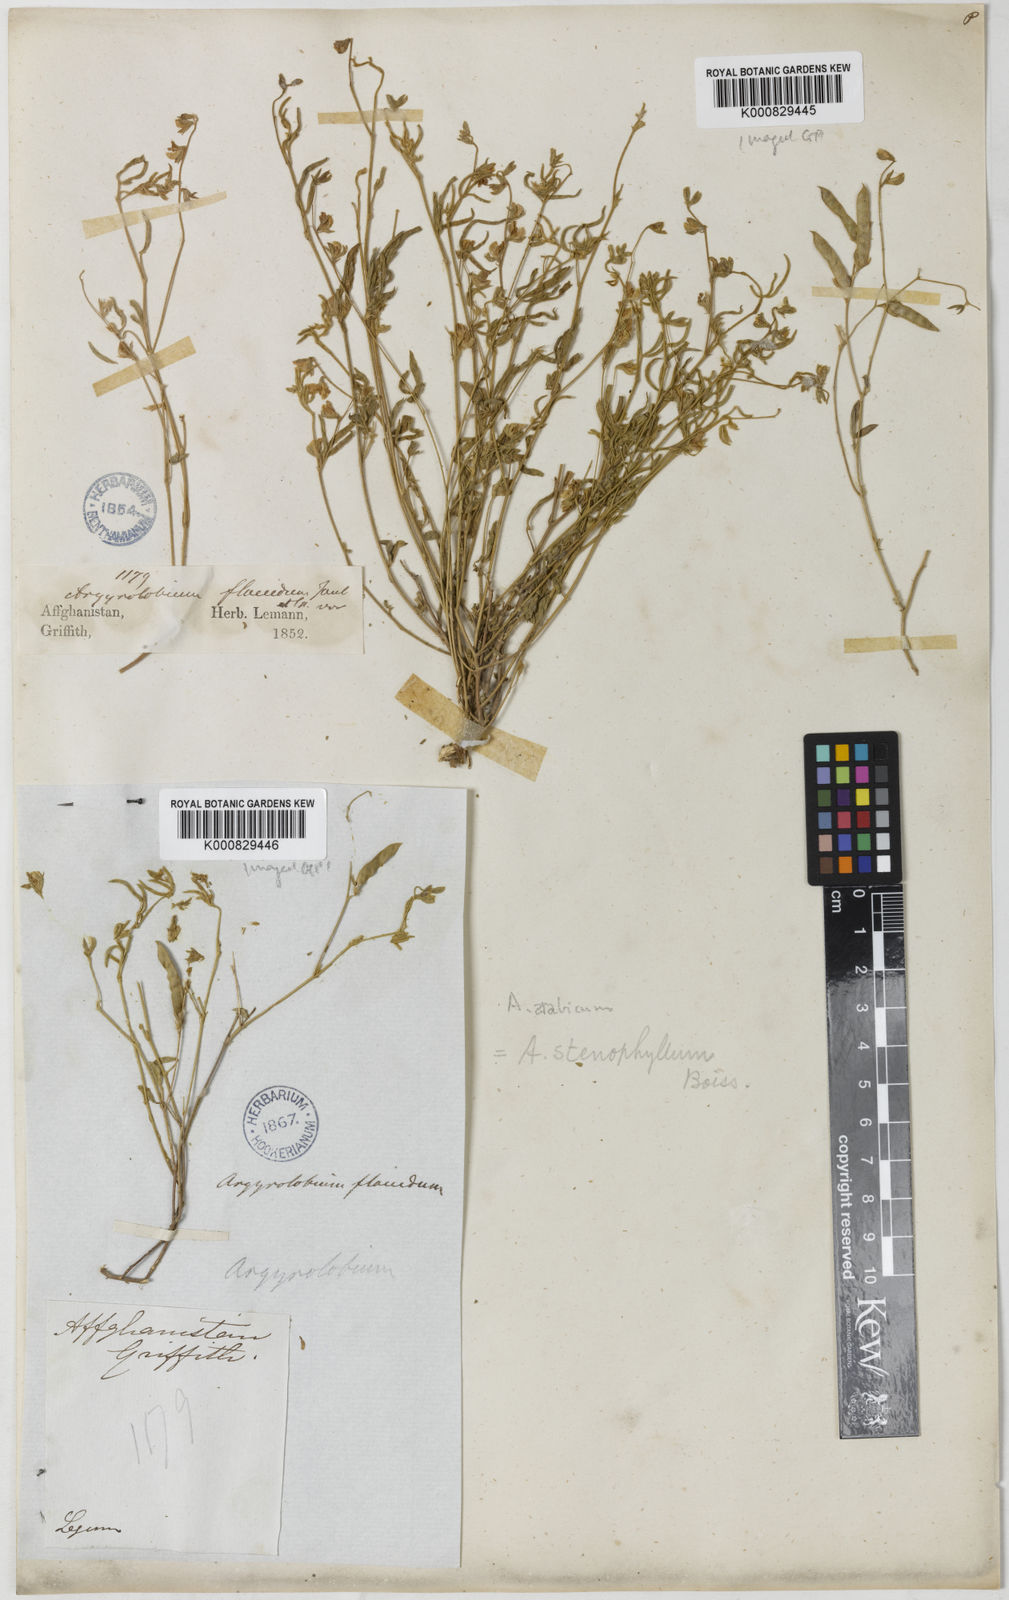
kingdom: Plantae
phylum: Tracheophyta
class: Magnoliopsida
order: Fabales
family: Fabaceae
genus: Argyrolobium
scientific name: Argyrolobium stenophyllum
